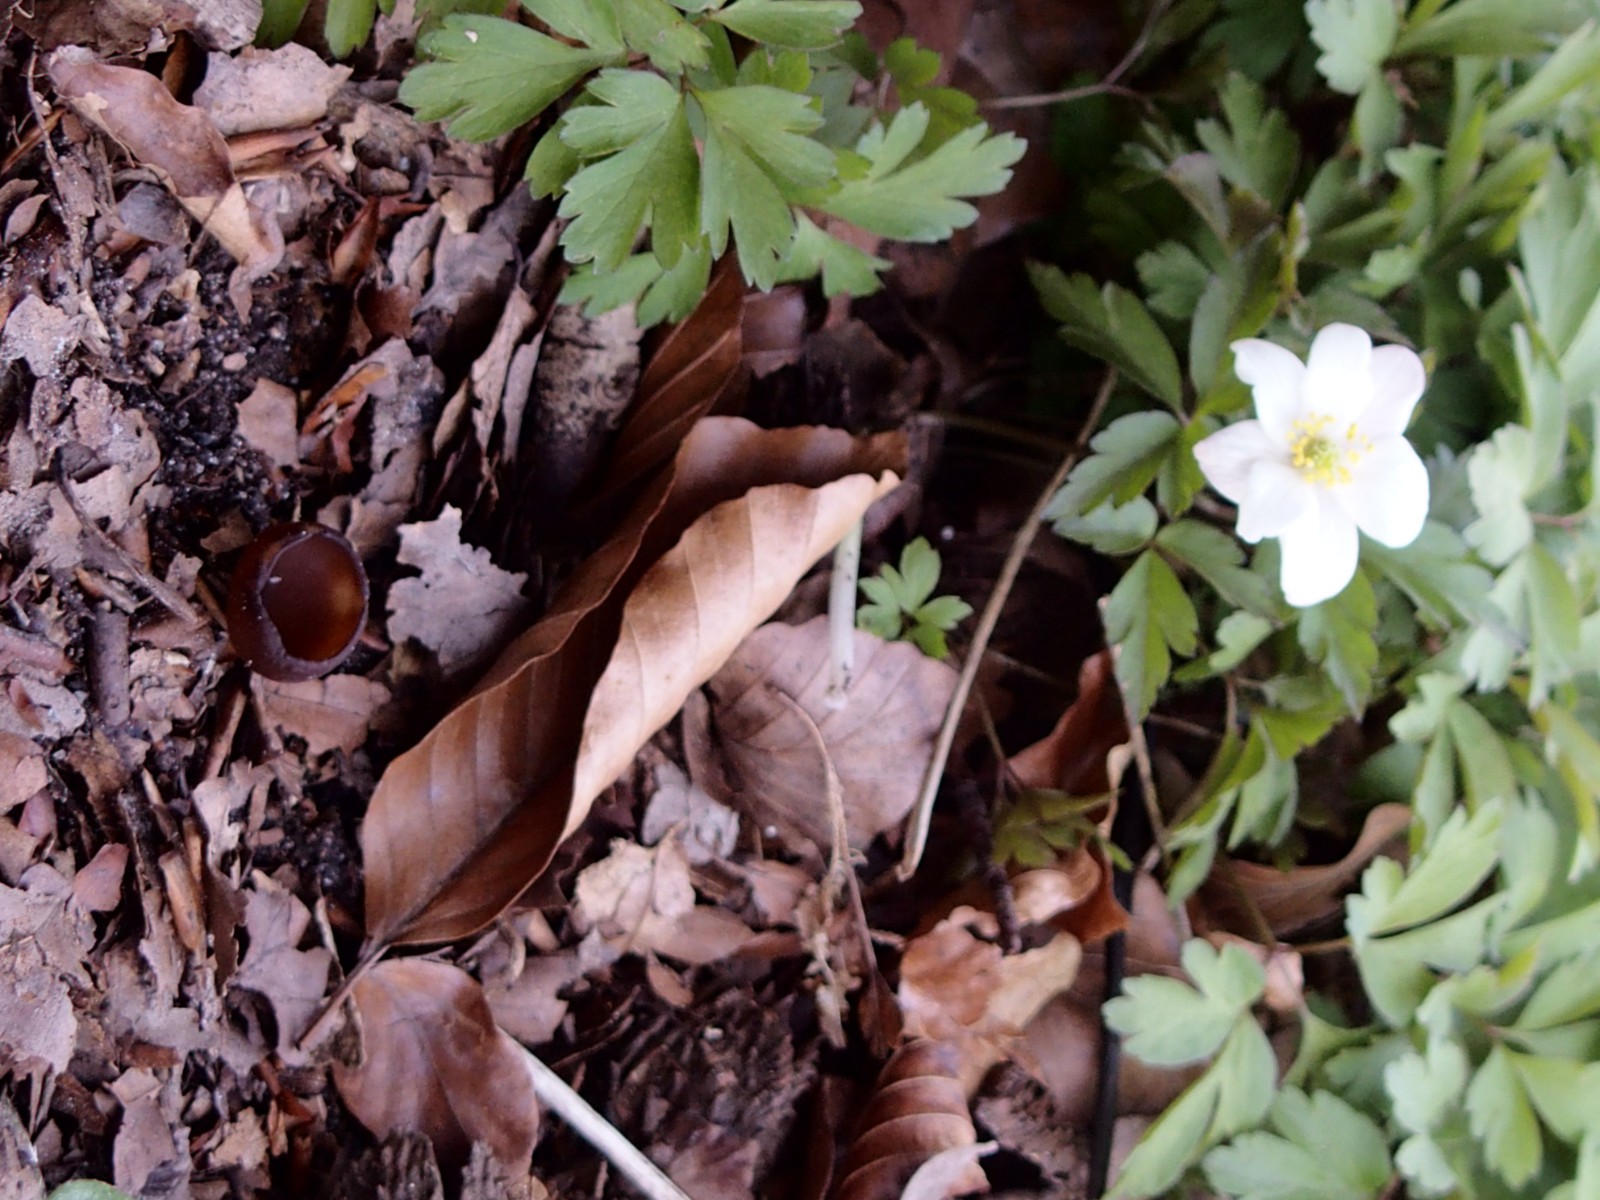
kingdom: Fungi
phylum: Ascomycota
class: Leotiomycetes
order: Helotiales
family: Sclerotiniaceae
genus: Dumontinia
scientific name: Dumontinia tuberosa
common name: anemone-knoldskive
